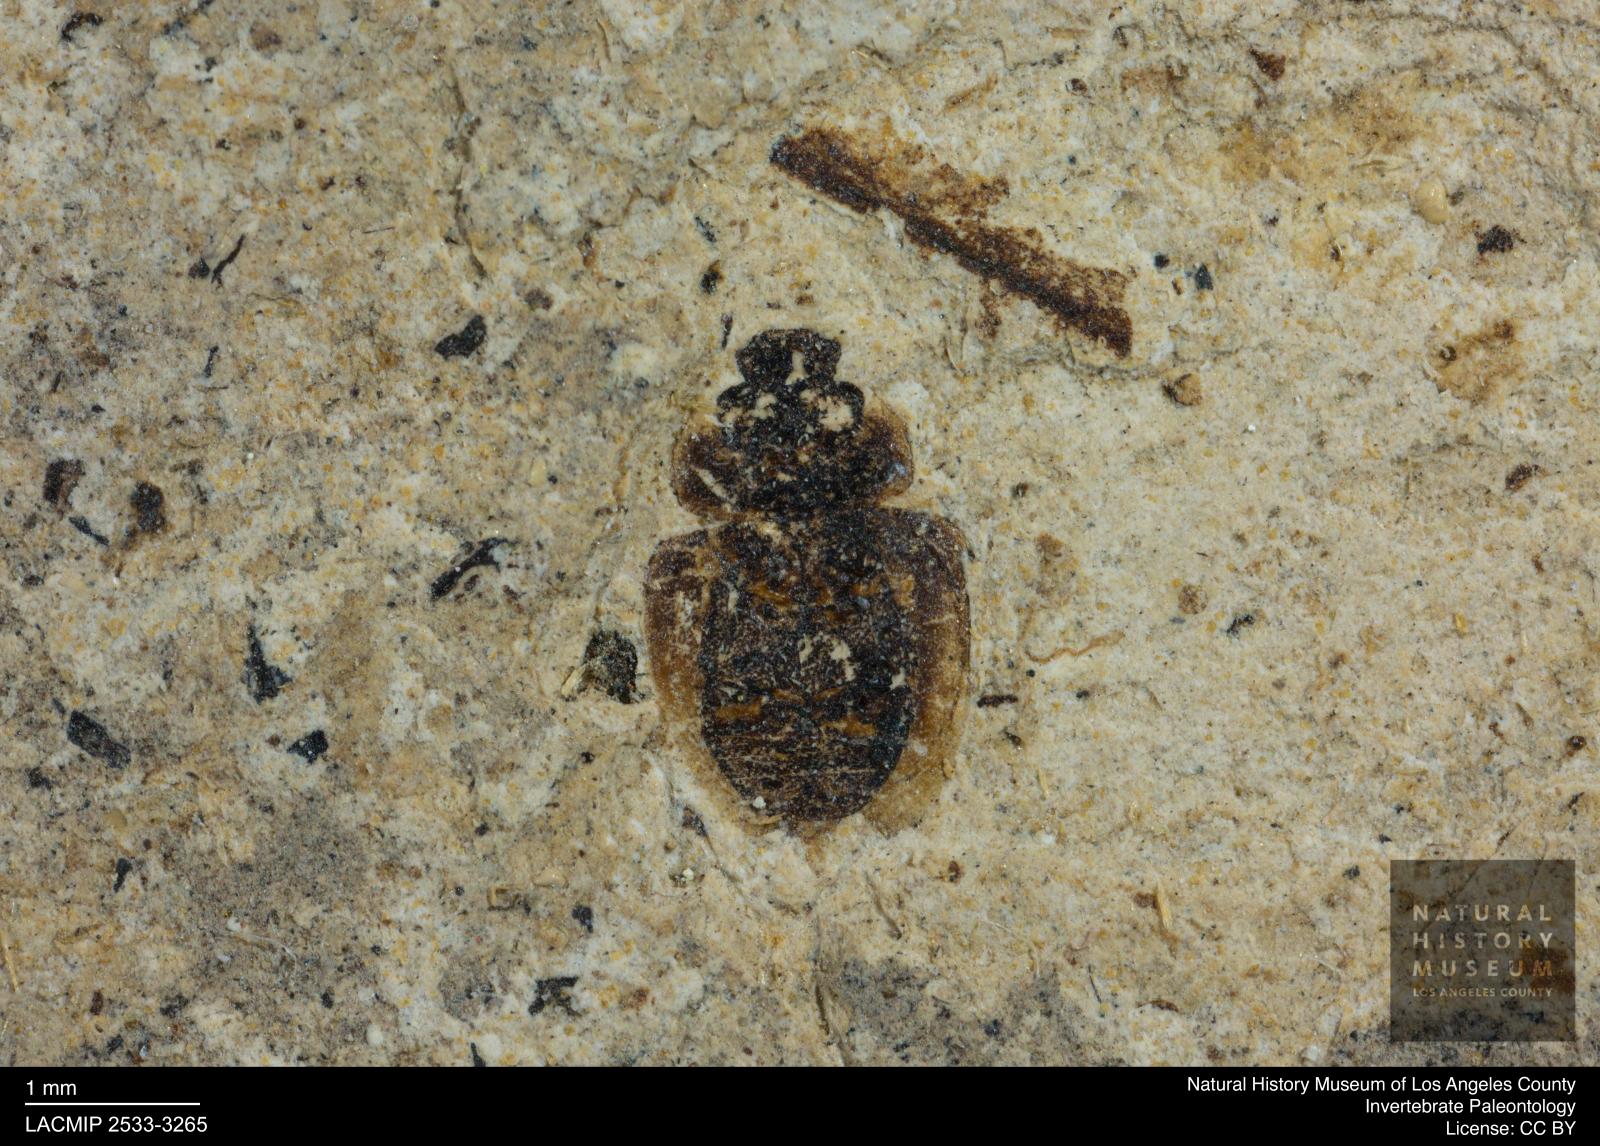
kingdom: Animalia
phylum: Arthropoda
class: Insecta
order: Coleoptera
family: Hydrophilidae
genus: Paracymus
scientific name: Paracymus excitatus
